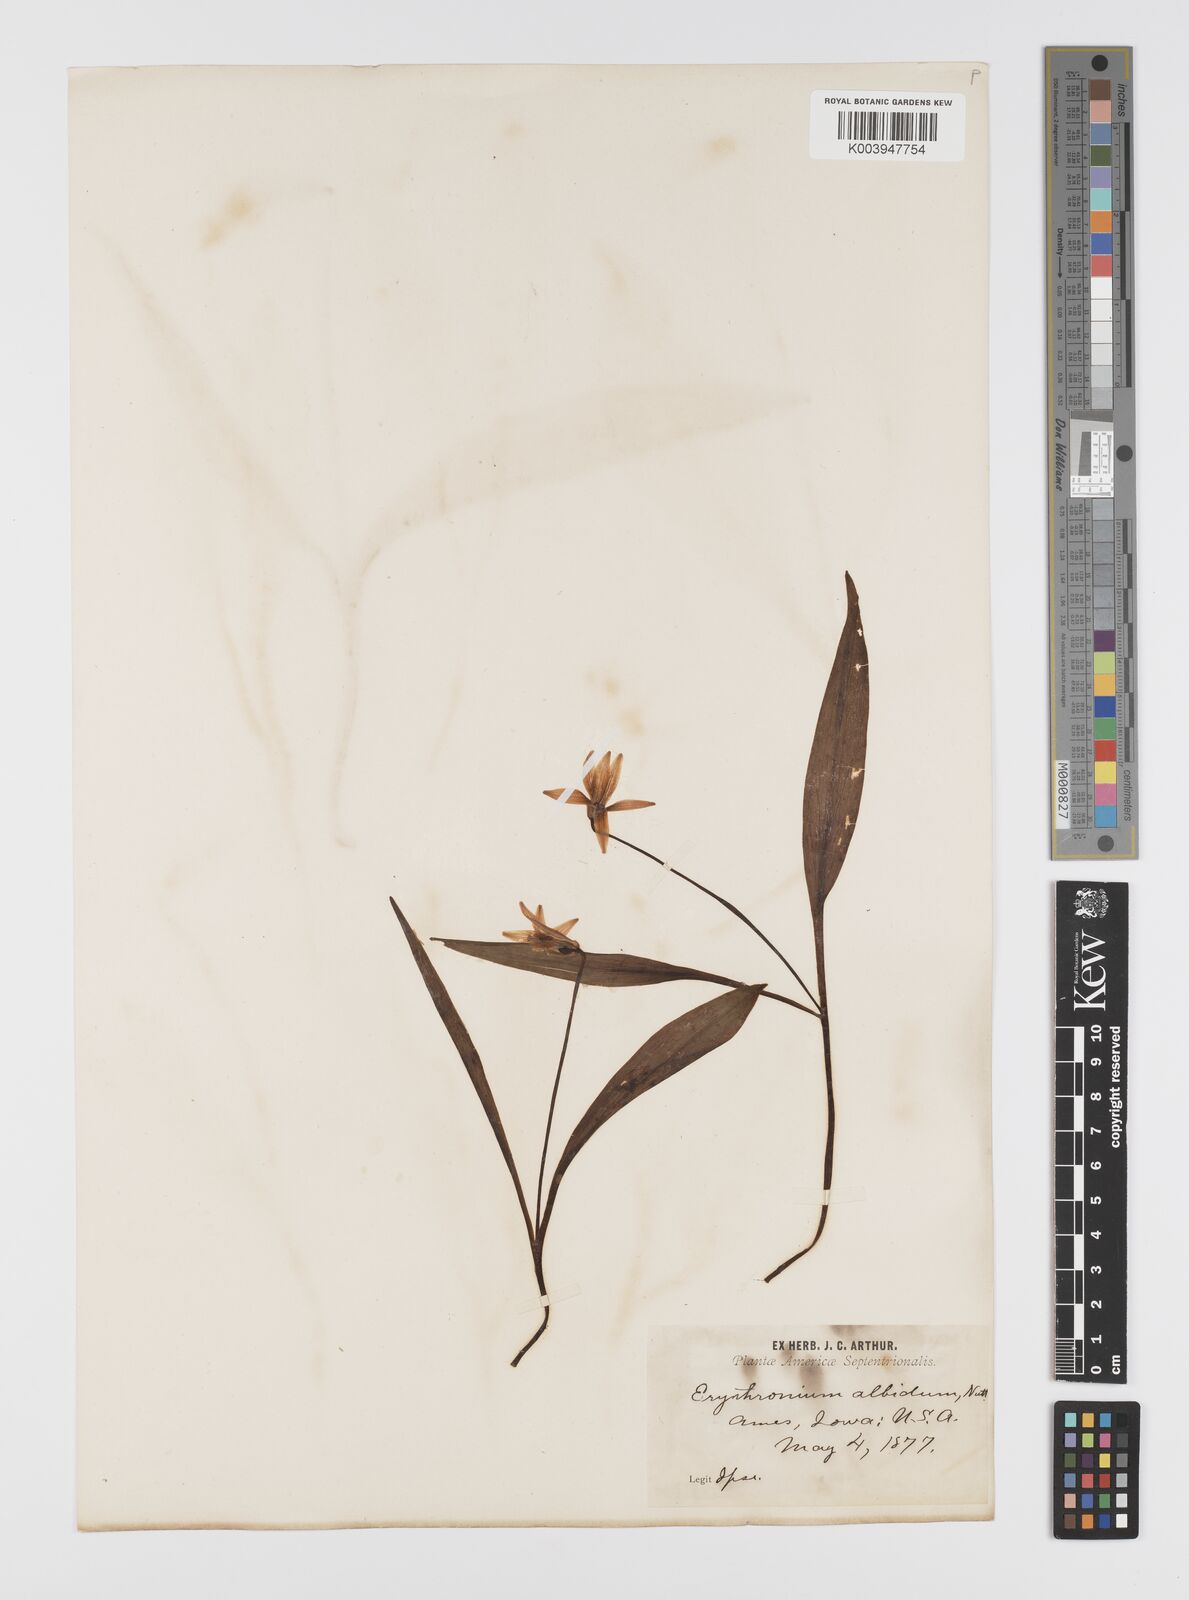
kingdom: Plantae
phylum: Tracheophyta
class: Liliopsida
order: Liliales
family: Liliaceae
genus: Erythronium
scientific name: Erythronium albidum
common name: White trout-lily
